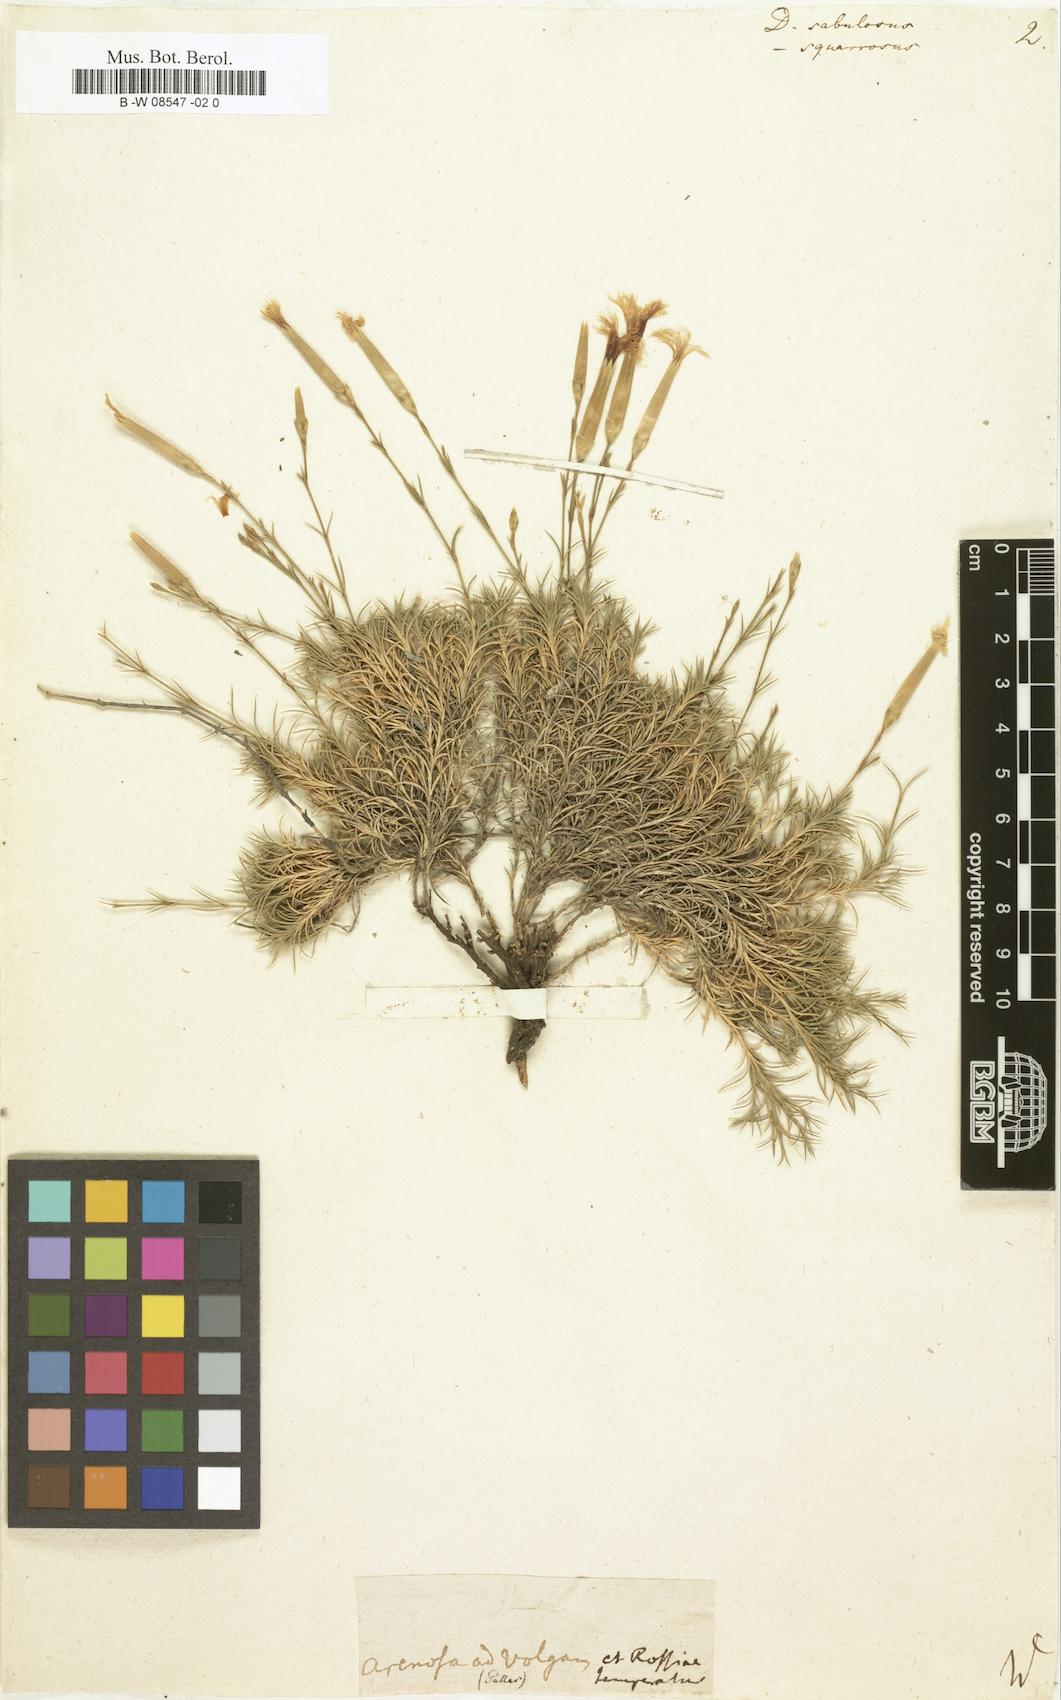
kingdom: Plantae
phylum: Tracheophyta
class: Magnoliopsida
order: Caryophyllales
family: Caryophyllaceae
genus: Dianthus
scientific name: Dianthus squarrosus
